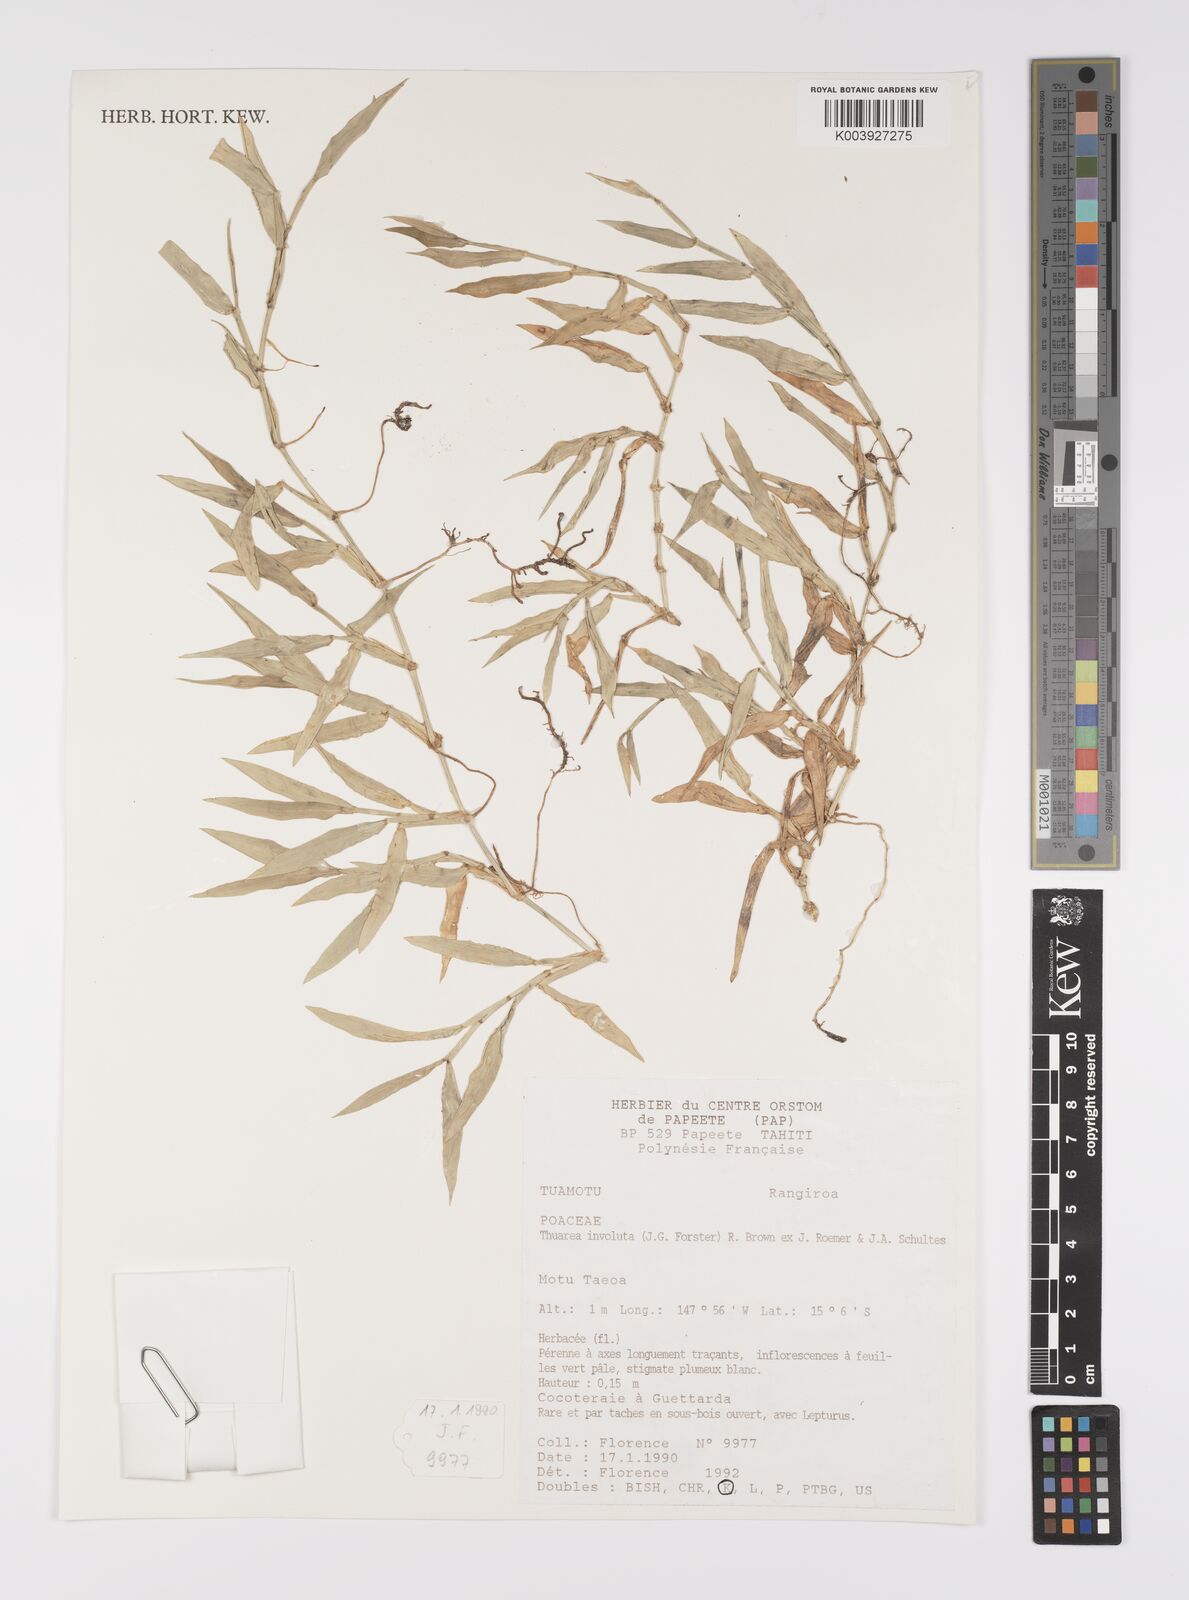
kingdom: Plantae
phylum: Tracheophyta
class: Liliopsida
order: Poales
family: Poaceae
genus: Thuarea
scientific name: Thuarea involuta
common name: Tropical beach grass
